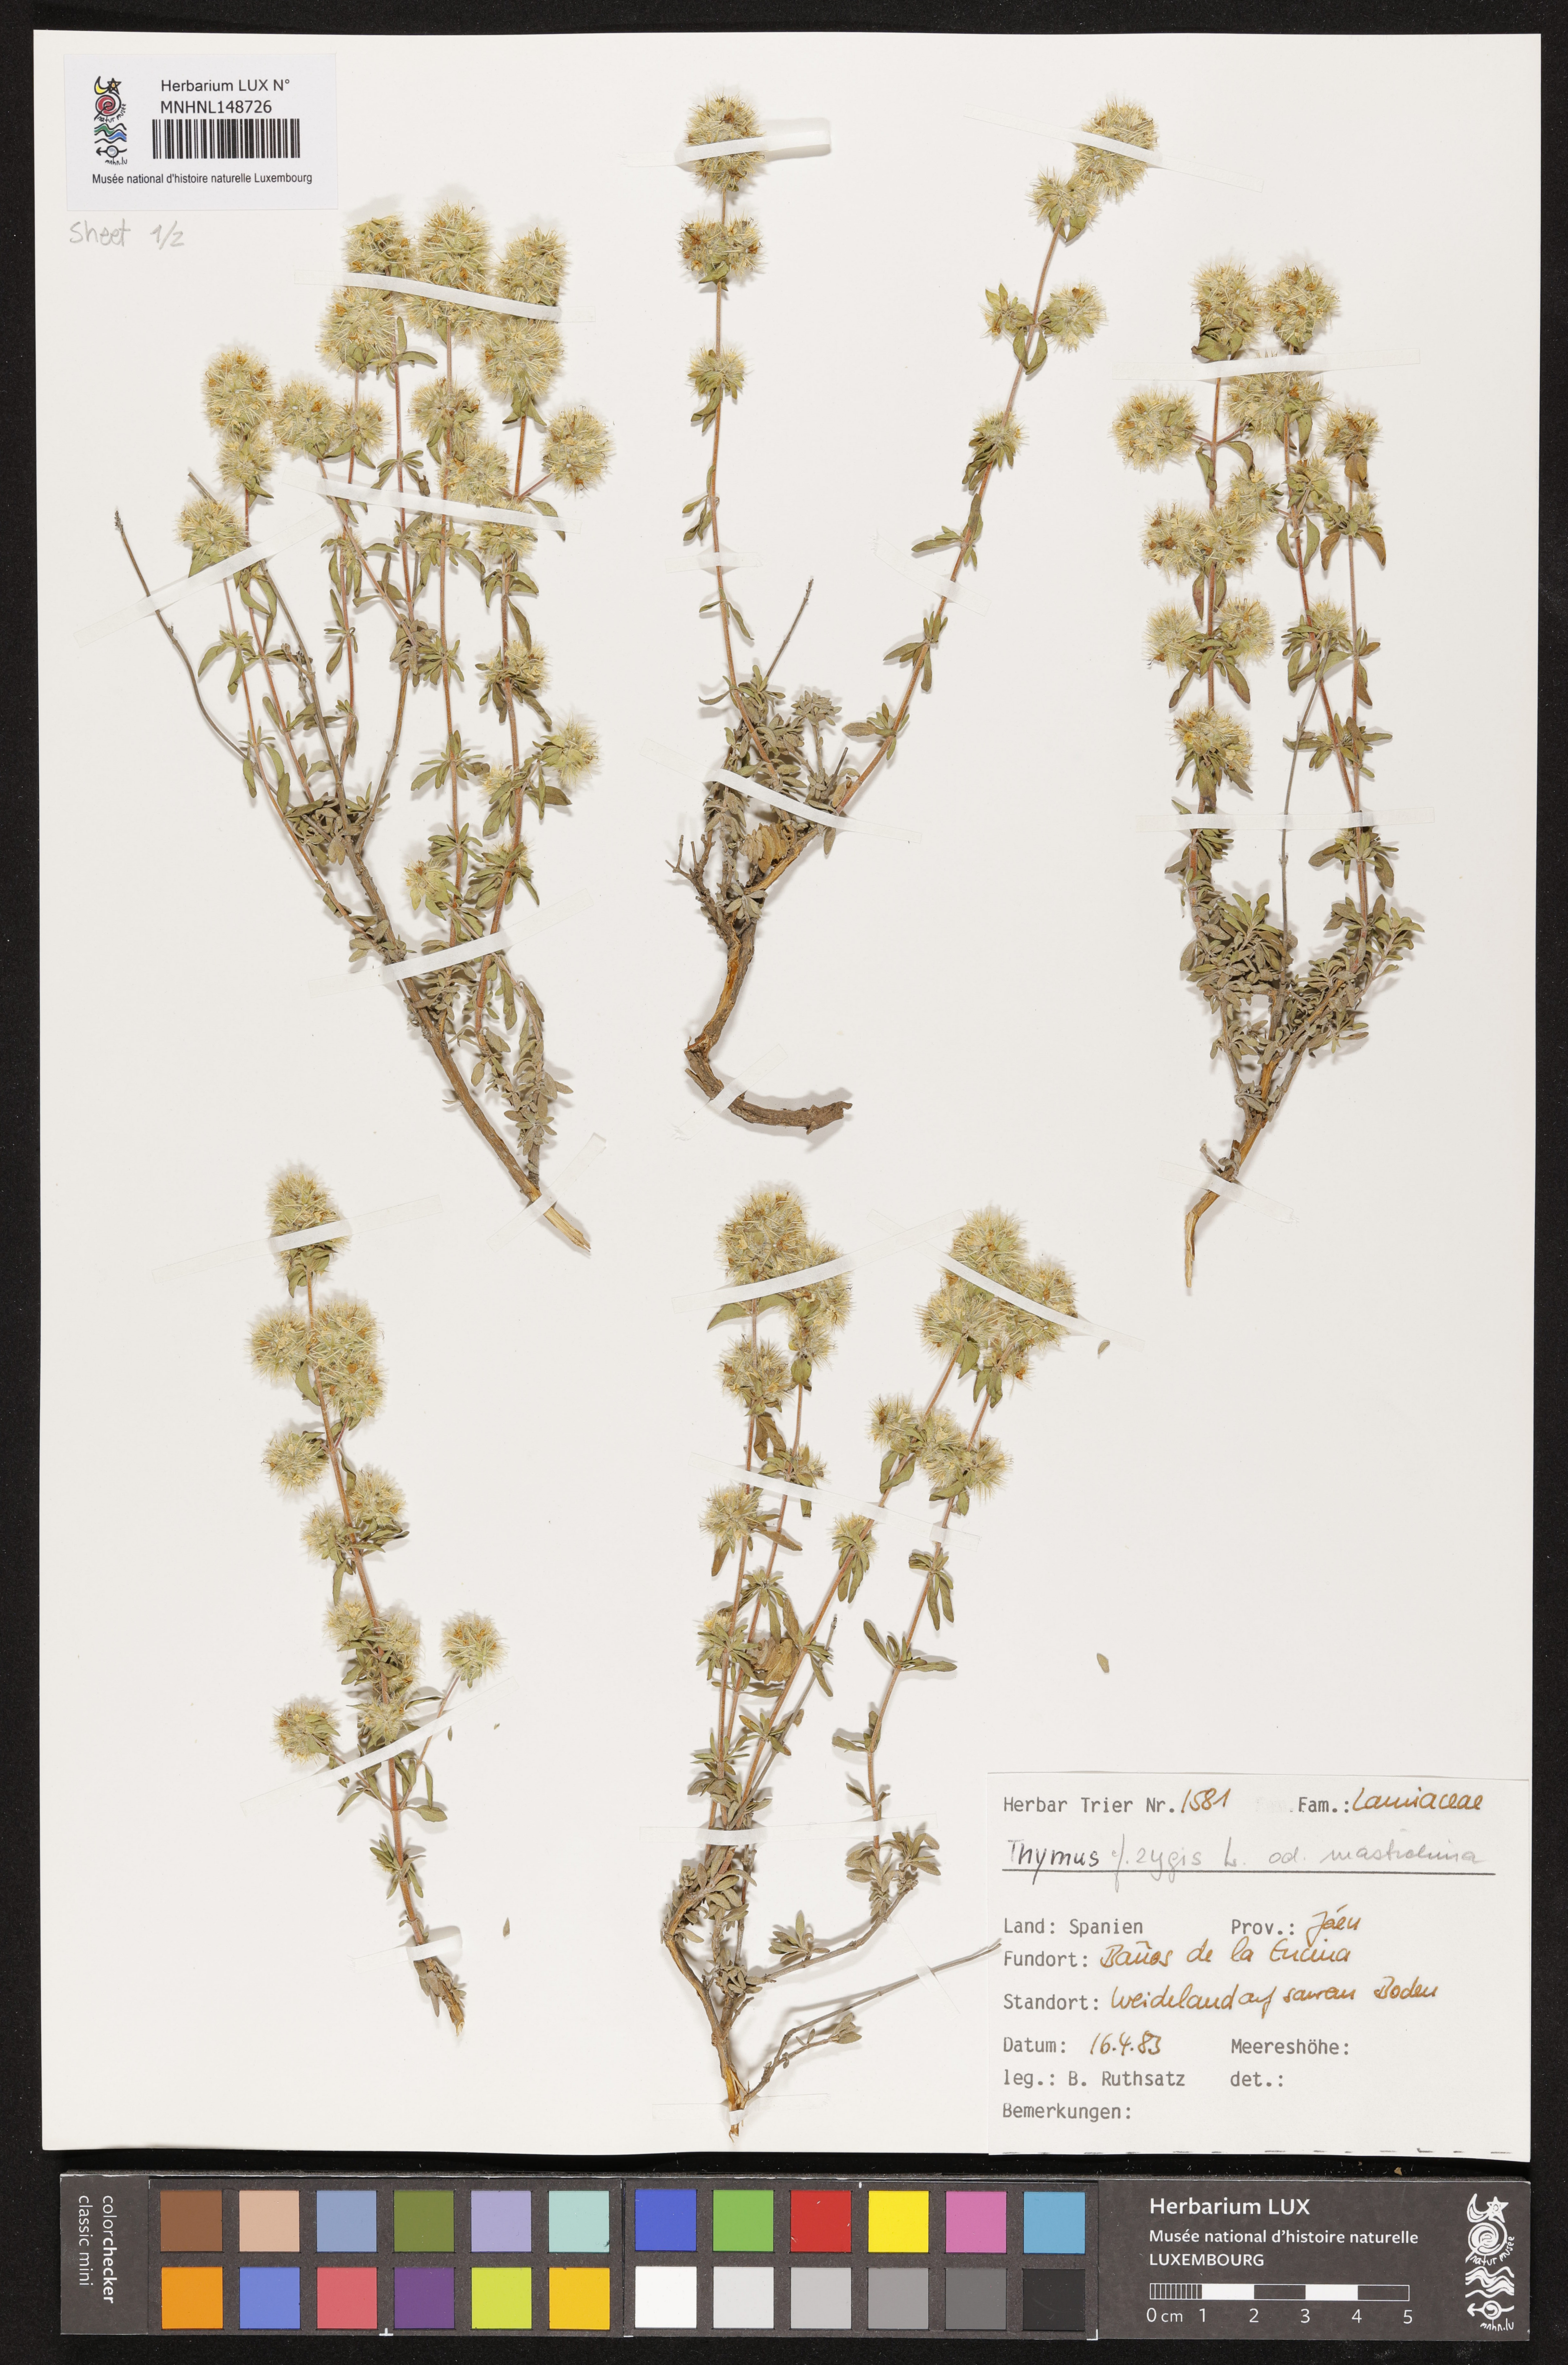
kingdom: Plantae
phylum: Tracheophyta
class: Magnoliopsida
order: Lamiales
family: Lamiaceae
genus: Thymus
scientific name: Thymus zygis
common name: White thyme
